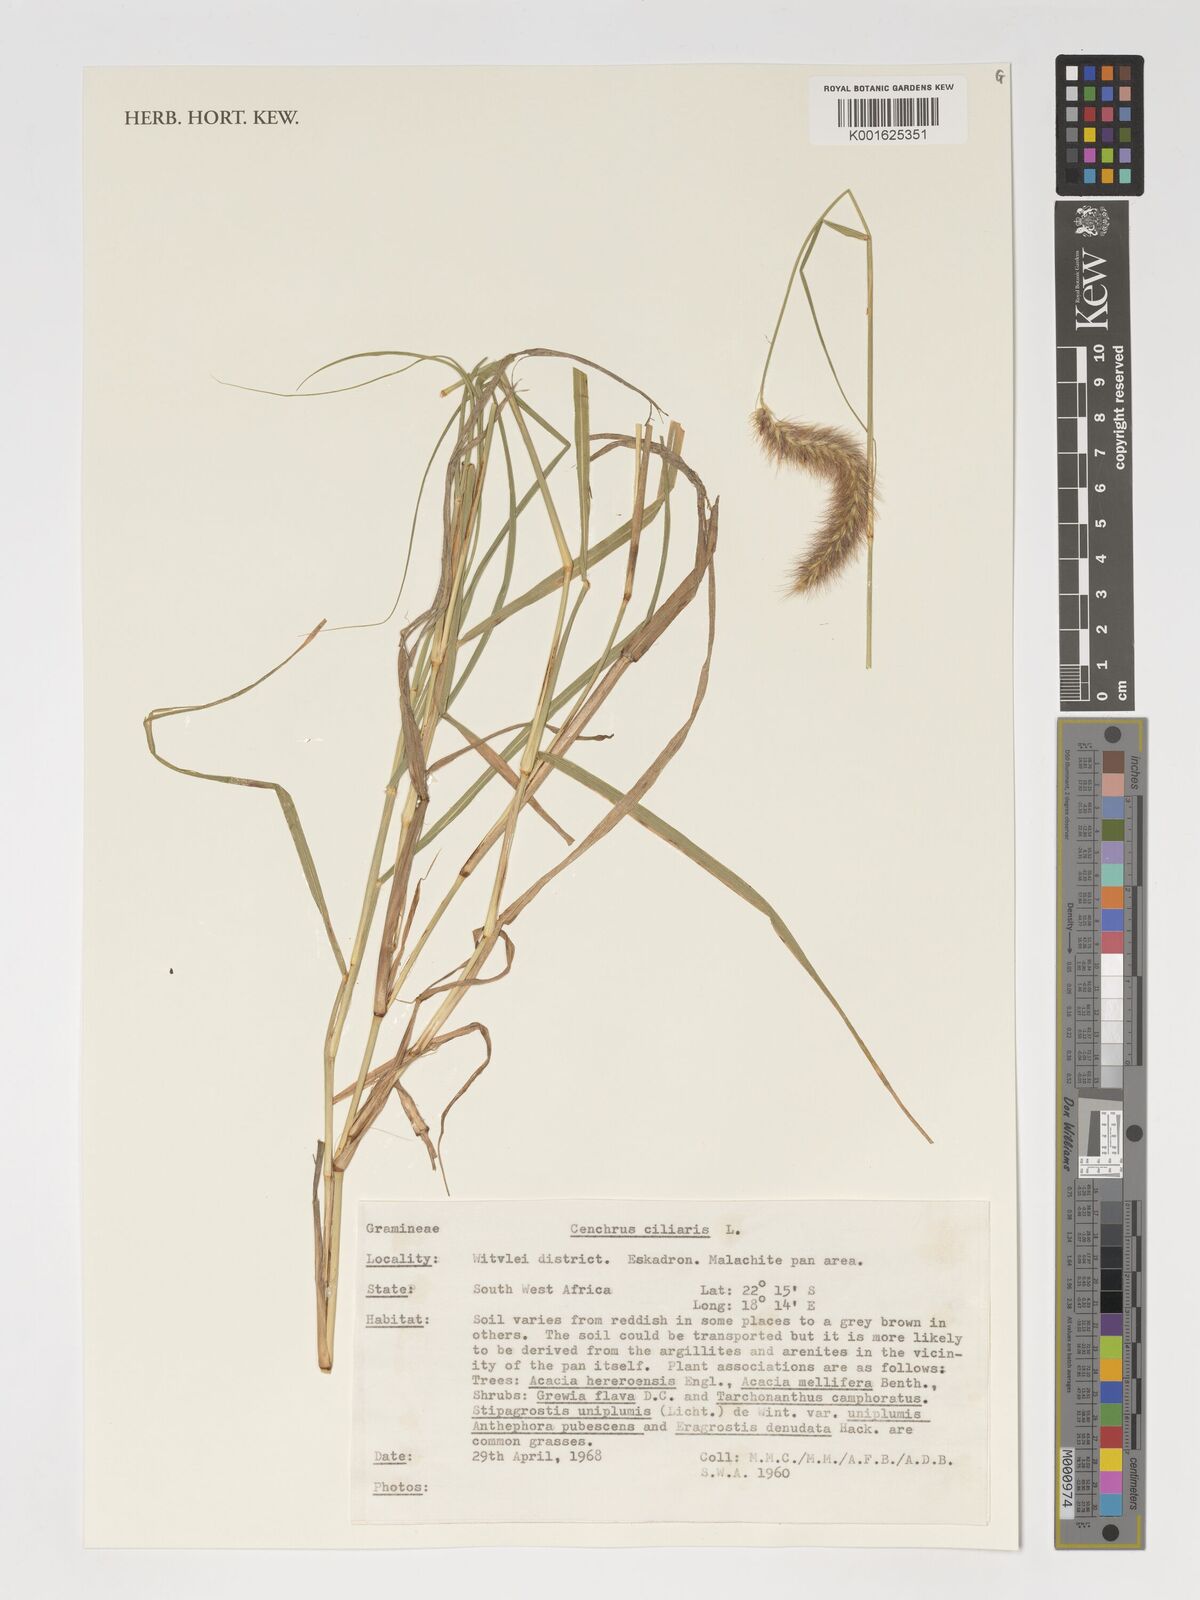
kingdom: Plantae
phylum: Tracheophyta
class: Liliopsida
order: Poales
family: Poaceae
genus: Cenchrus
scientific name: Cenchrus ciliaris
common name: Buffelgrass
